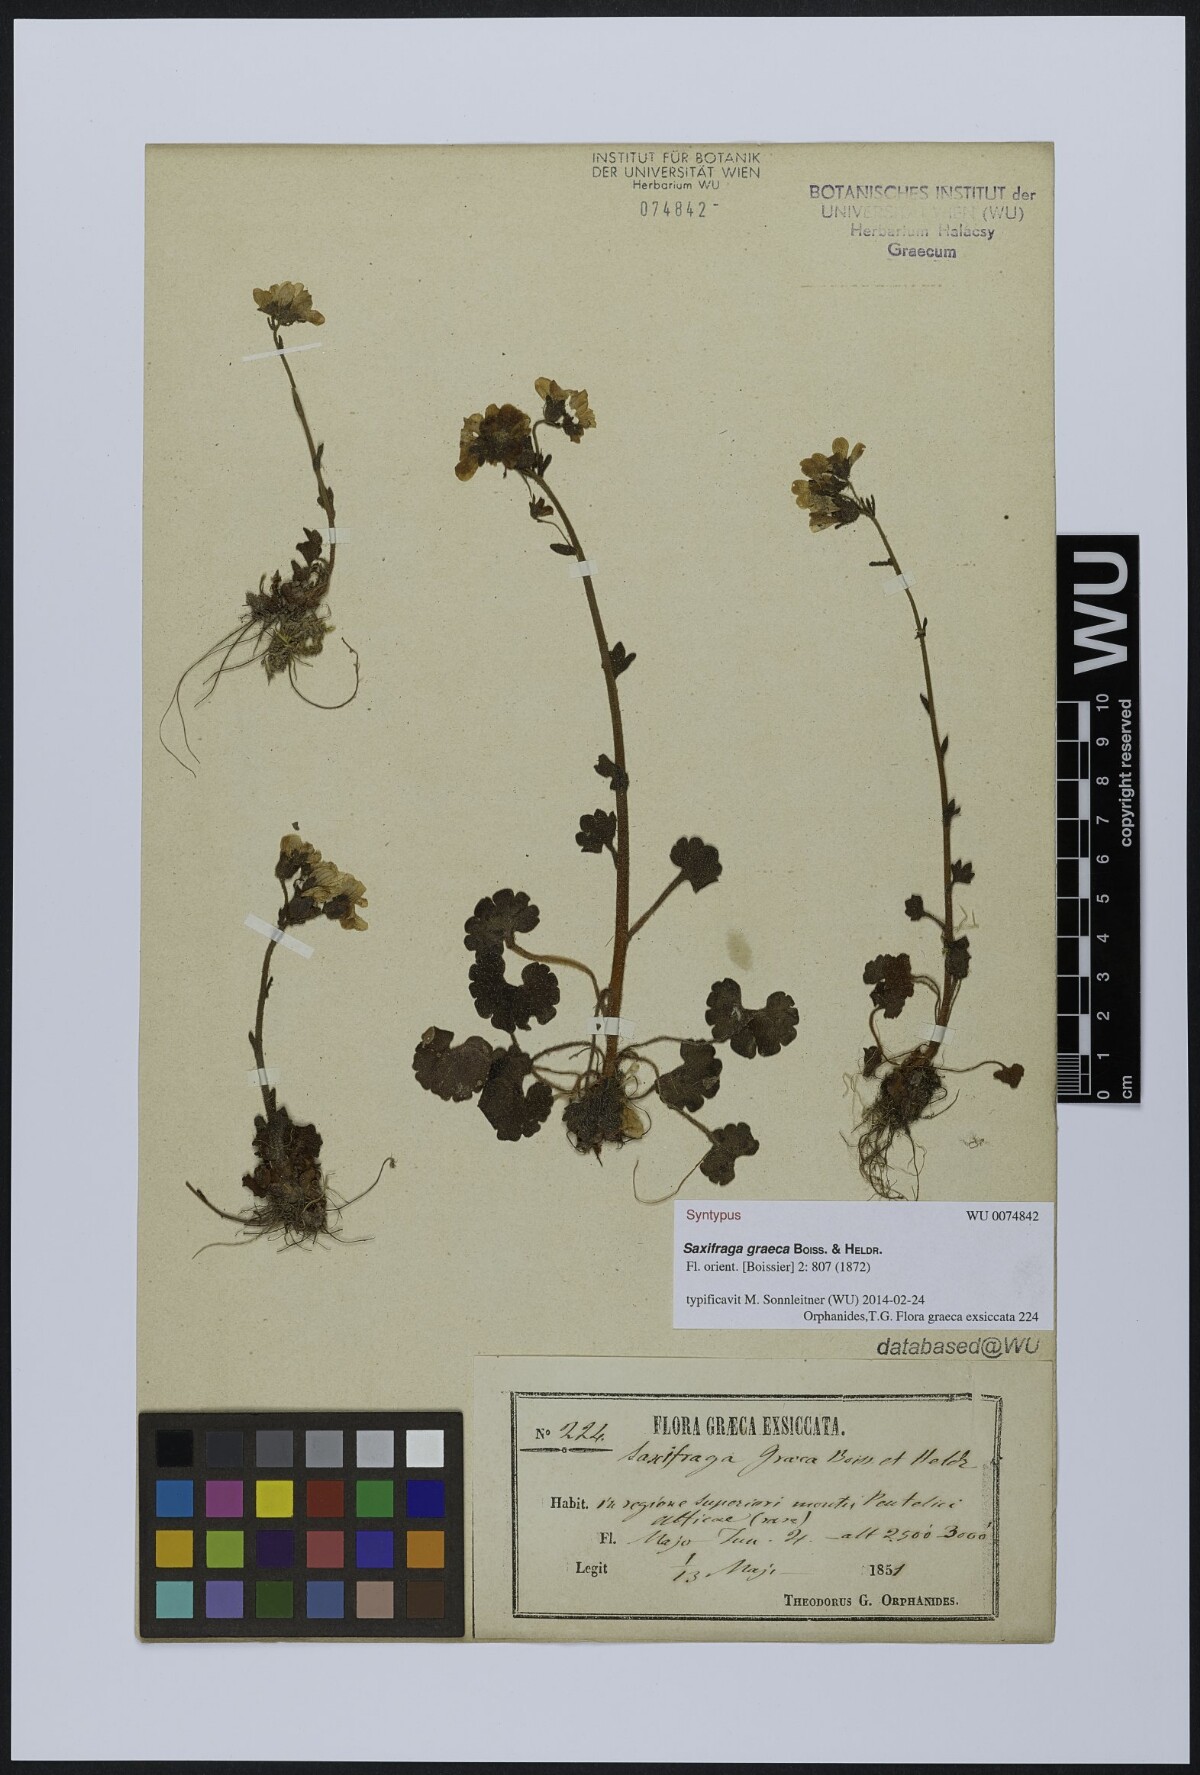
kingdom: Plantae
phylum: Tracheophyta
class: Magnoliopsida
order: Saxifragales
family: Saxifragaceae
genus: Saxifraga
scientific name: Saxifraga carpetana
